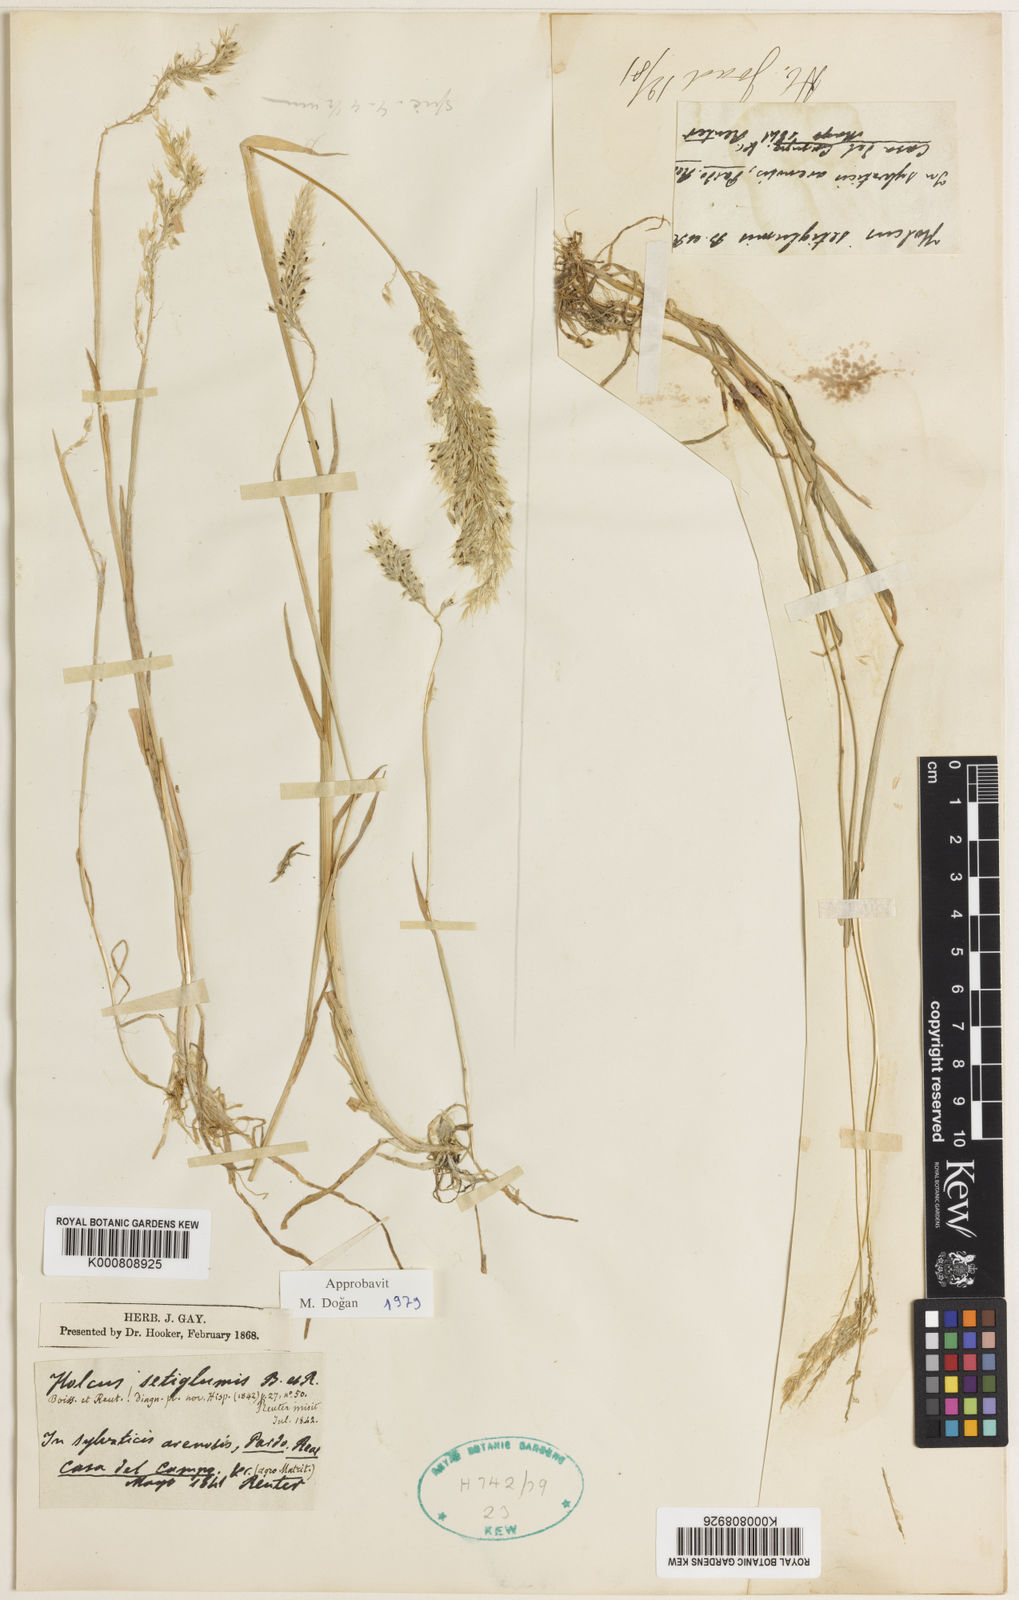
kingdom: Plantae
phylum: Tracheophyta
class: Liliopsida
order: Poales
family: Poaceae
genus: Holcus
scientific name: Holcus annuus
